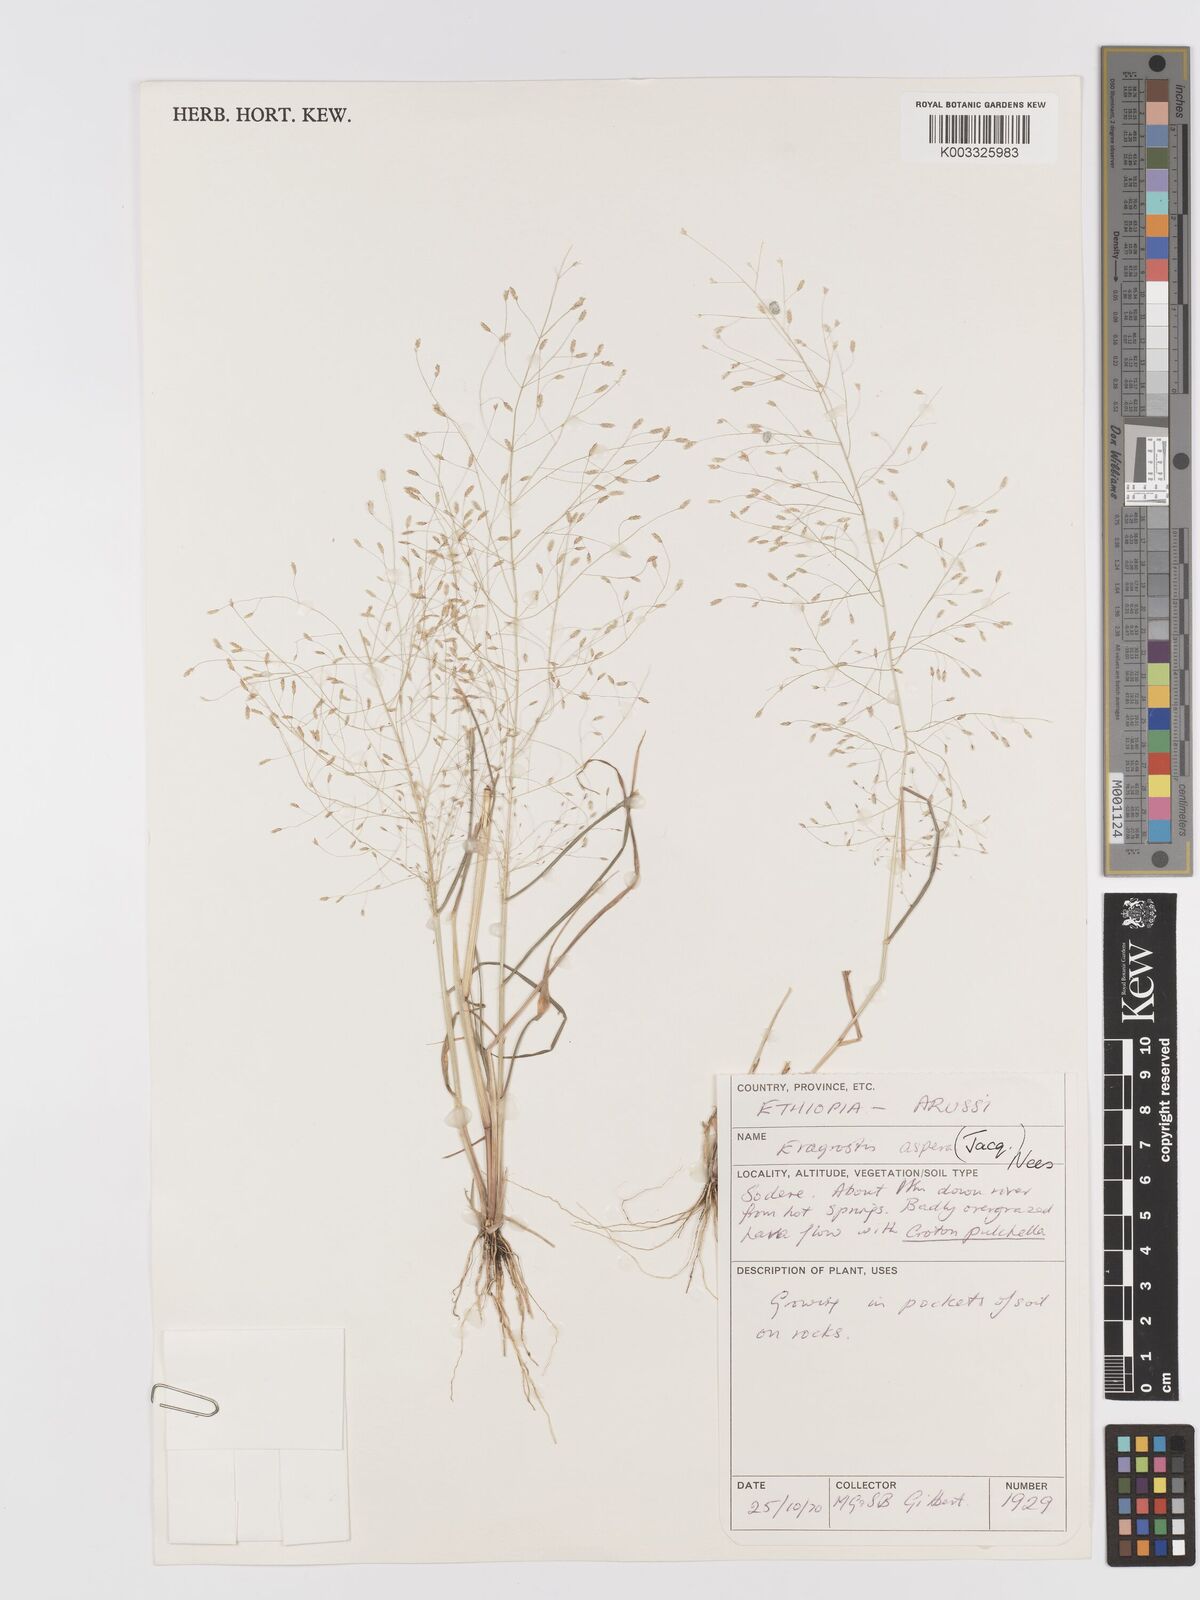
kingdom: Plantae
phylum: Tracheophyta
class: Liliopsida
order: Poales
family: Poaceae
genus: Eragrostis
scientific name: Eragrostis aspera
